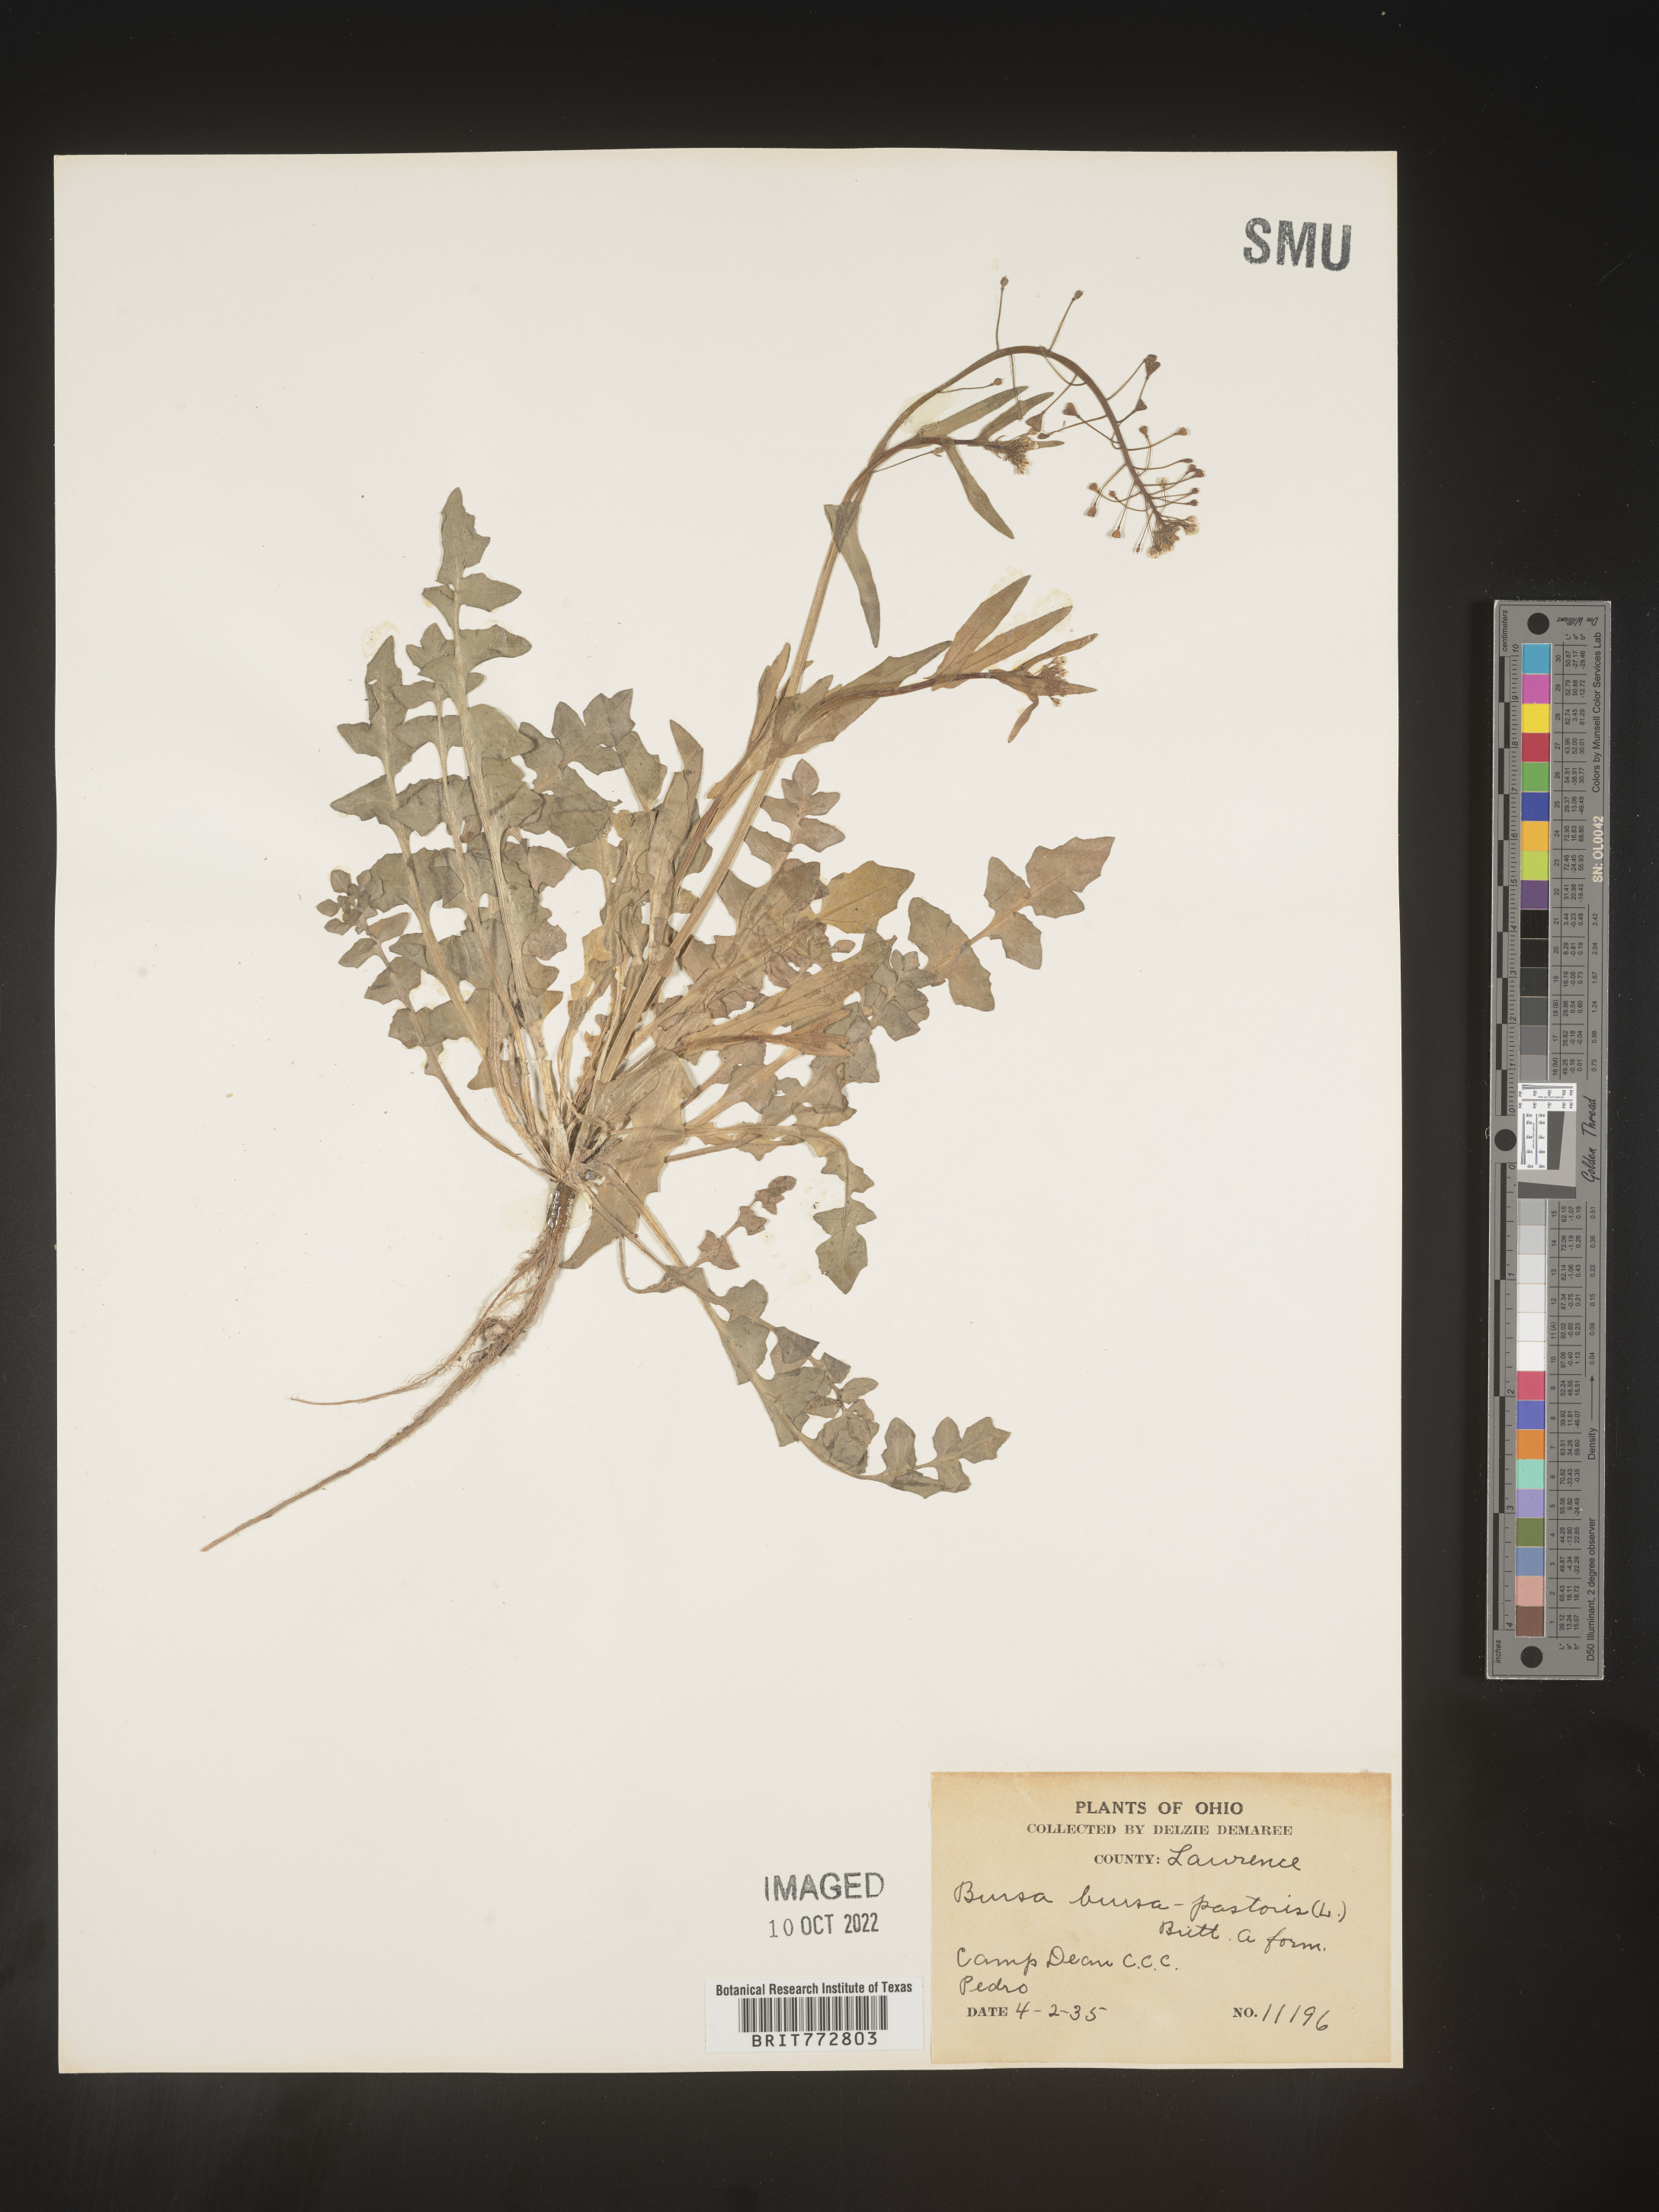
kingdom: Plantae
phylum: Tracheophyta
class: Magnoliopsida
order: Brassicales
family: Brassicaceae
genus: Capsella
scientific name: Capsella bursa-pastoris
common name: Shepherd's purse
